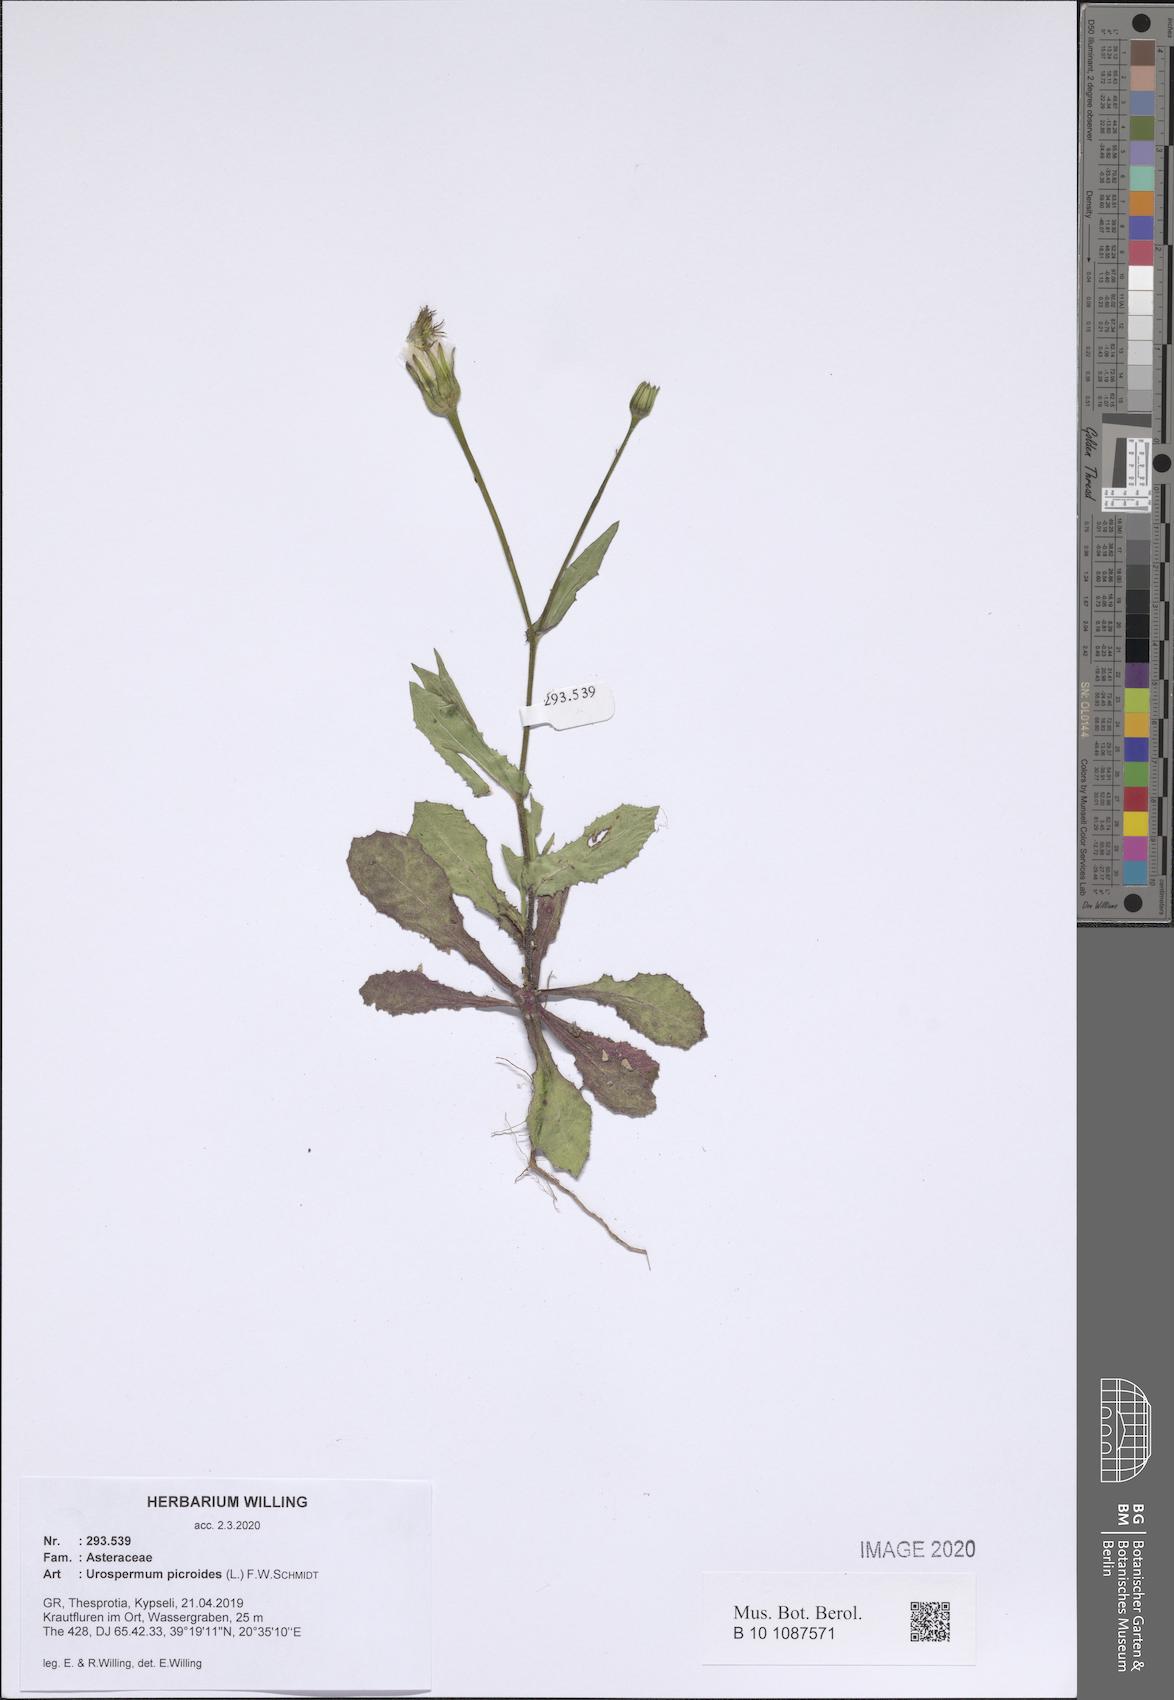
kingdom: Plantae
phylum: Tracheophyta
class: Magnoliopsida
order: Asterales
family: Asteraceae
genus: Urospermum
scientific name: Urospermum picroides
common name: False hawkbit
